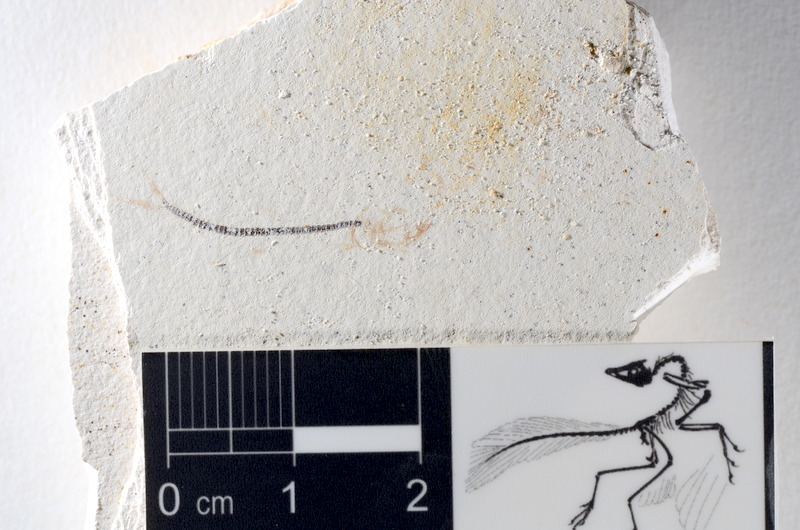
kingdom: Animalia
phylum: Chordata
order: Salmoniformes
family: Orthogonikleithridae
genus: Orthogonikleithrus
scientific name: Orthogonikleithrus hoelli
